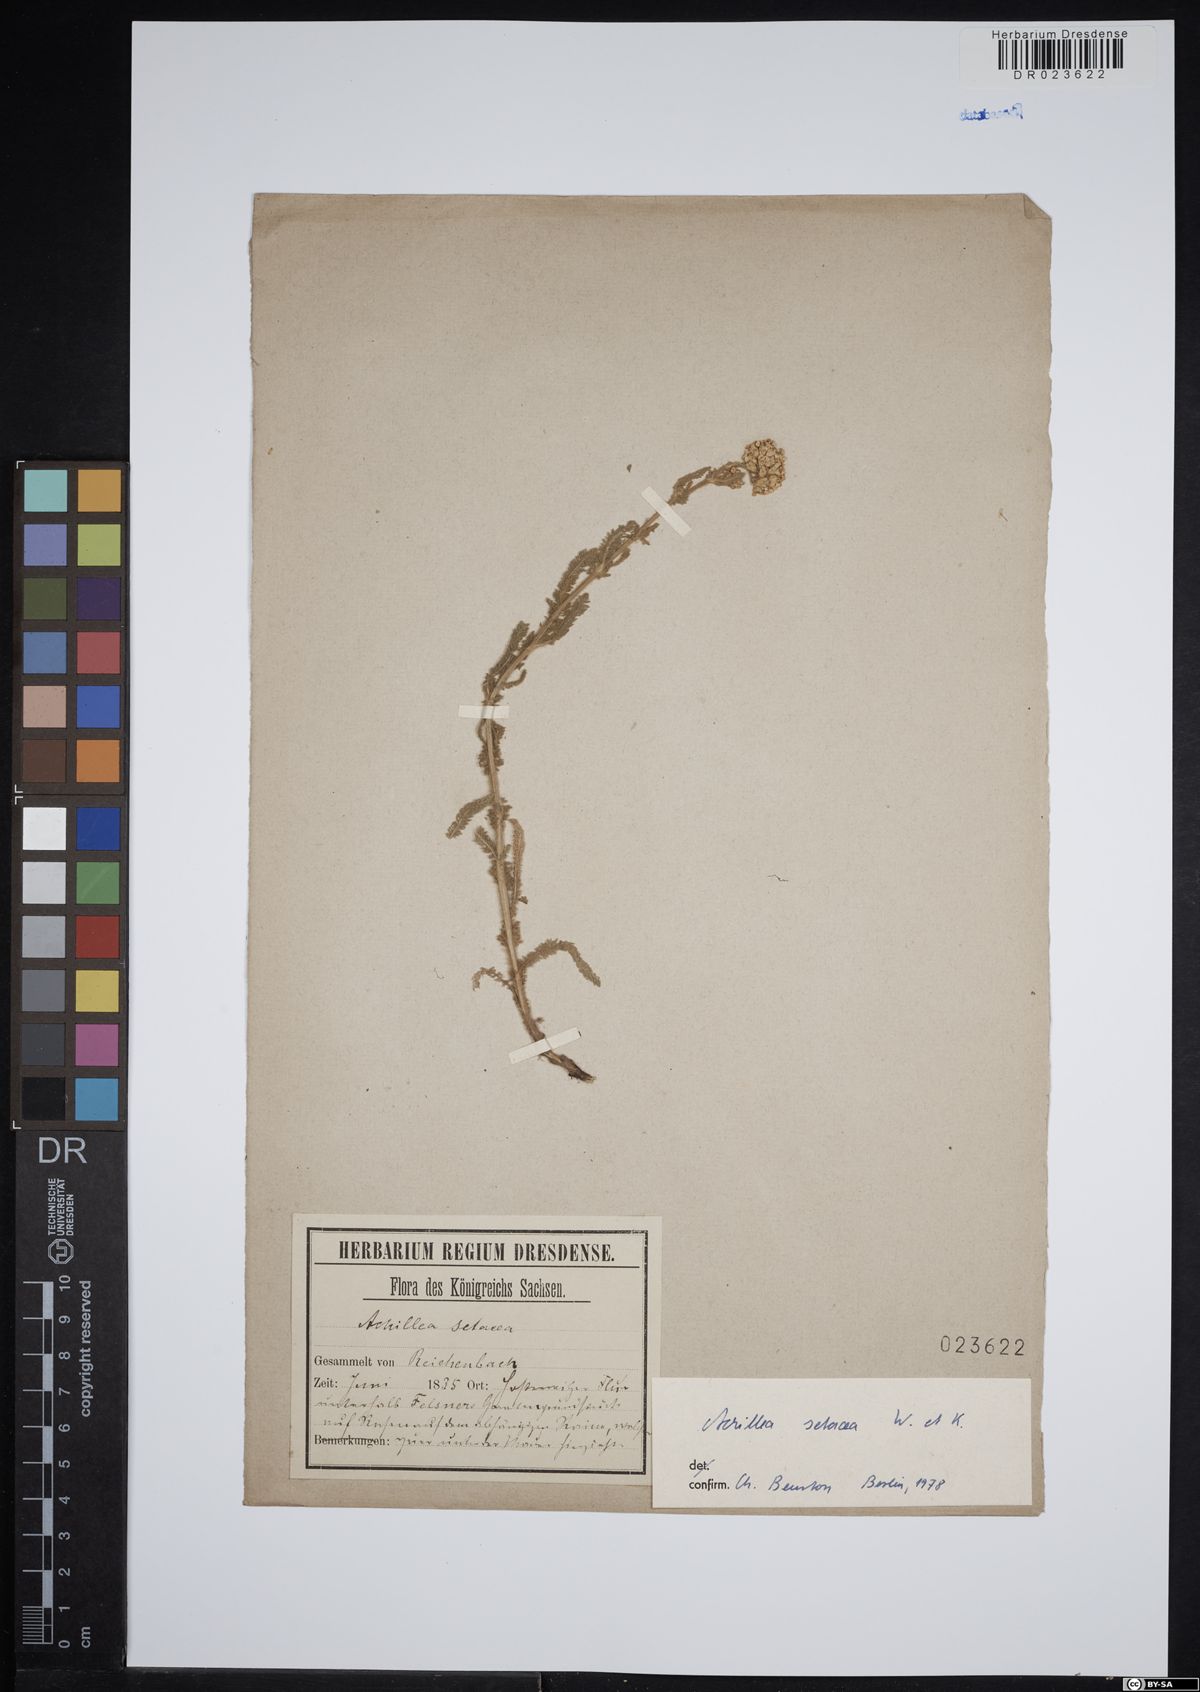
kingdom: Plantae
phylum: Tracheophyta
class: Magnoliopsida
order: Asterales
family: Asteraceae
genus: Achillea
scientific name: Achillea setacea
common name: Bristly yarrow
